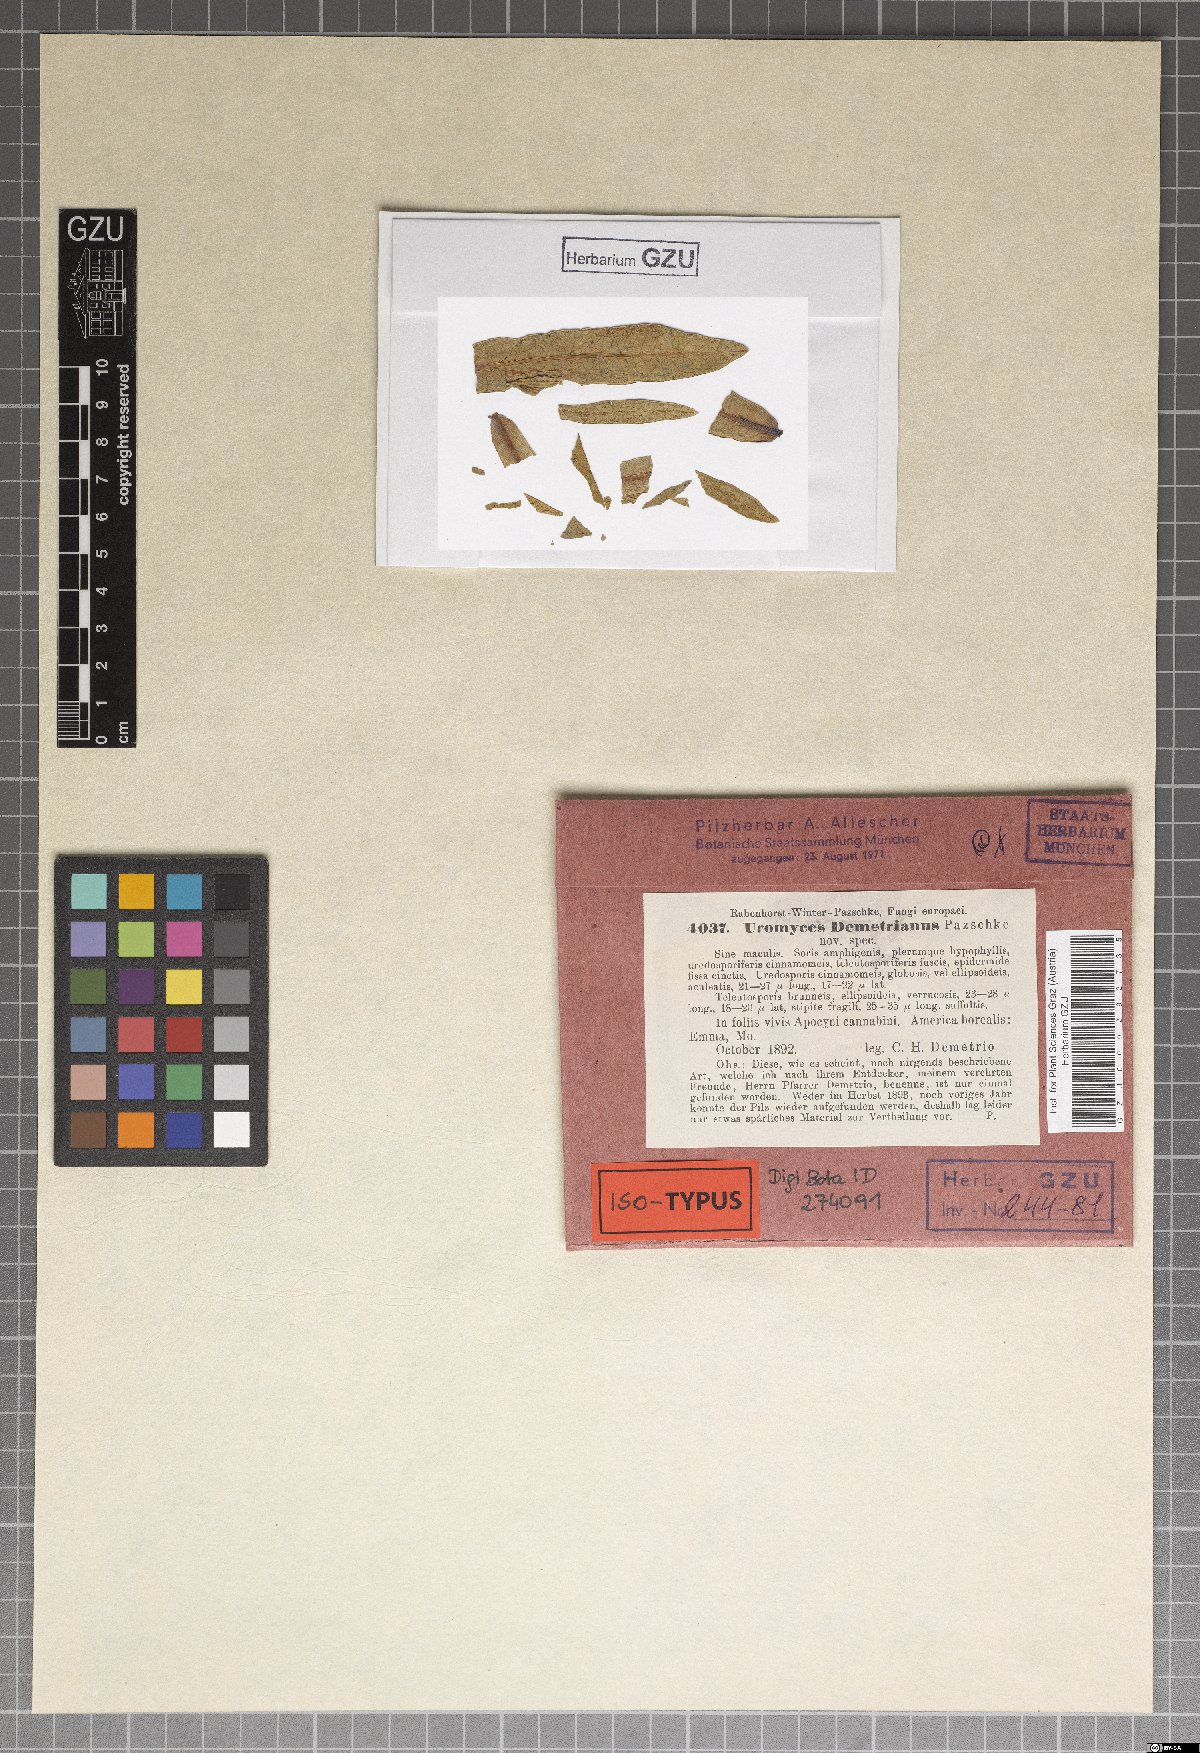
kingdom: Fungi
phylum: Basidiomycota
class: Pucciniomycetes
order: Pucciniales
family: Pucciniaceae
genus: Uromyces
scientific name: Uromyces demetrionianus
